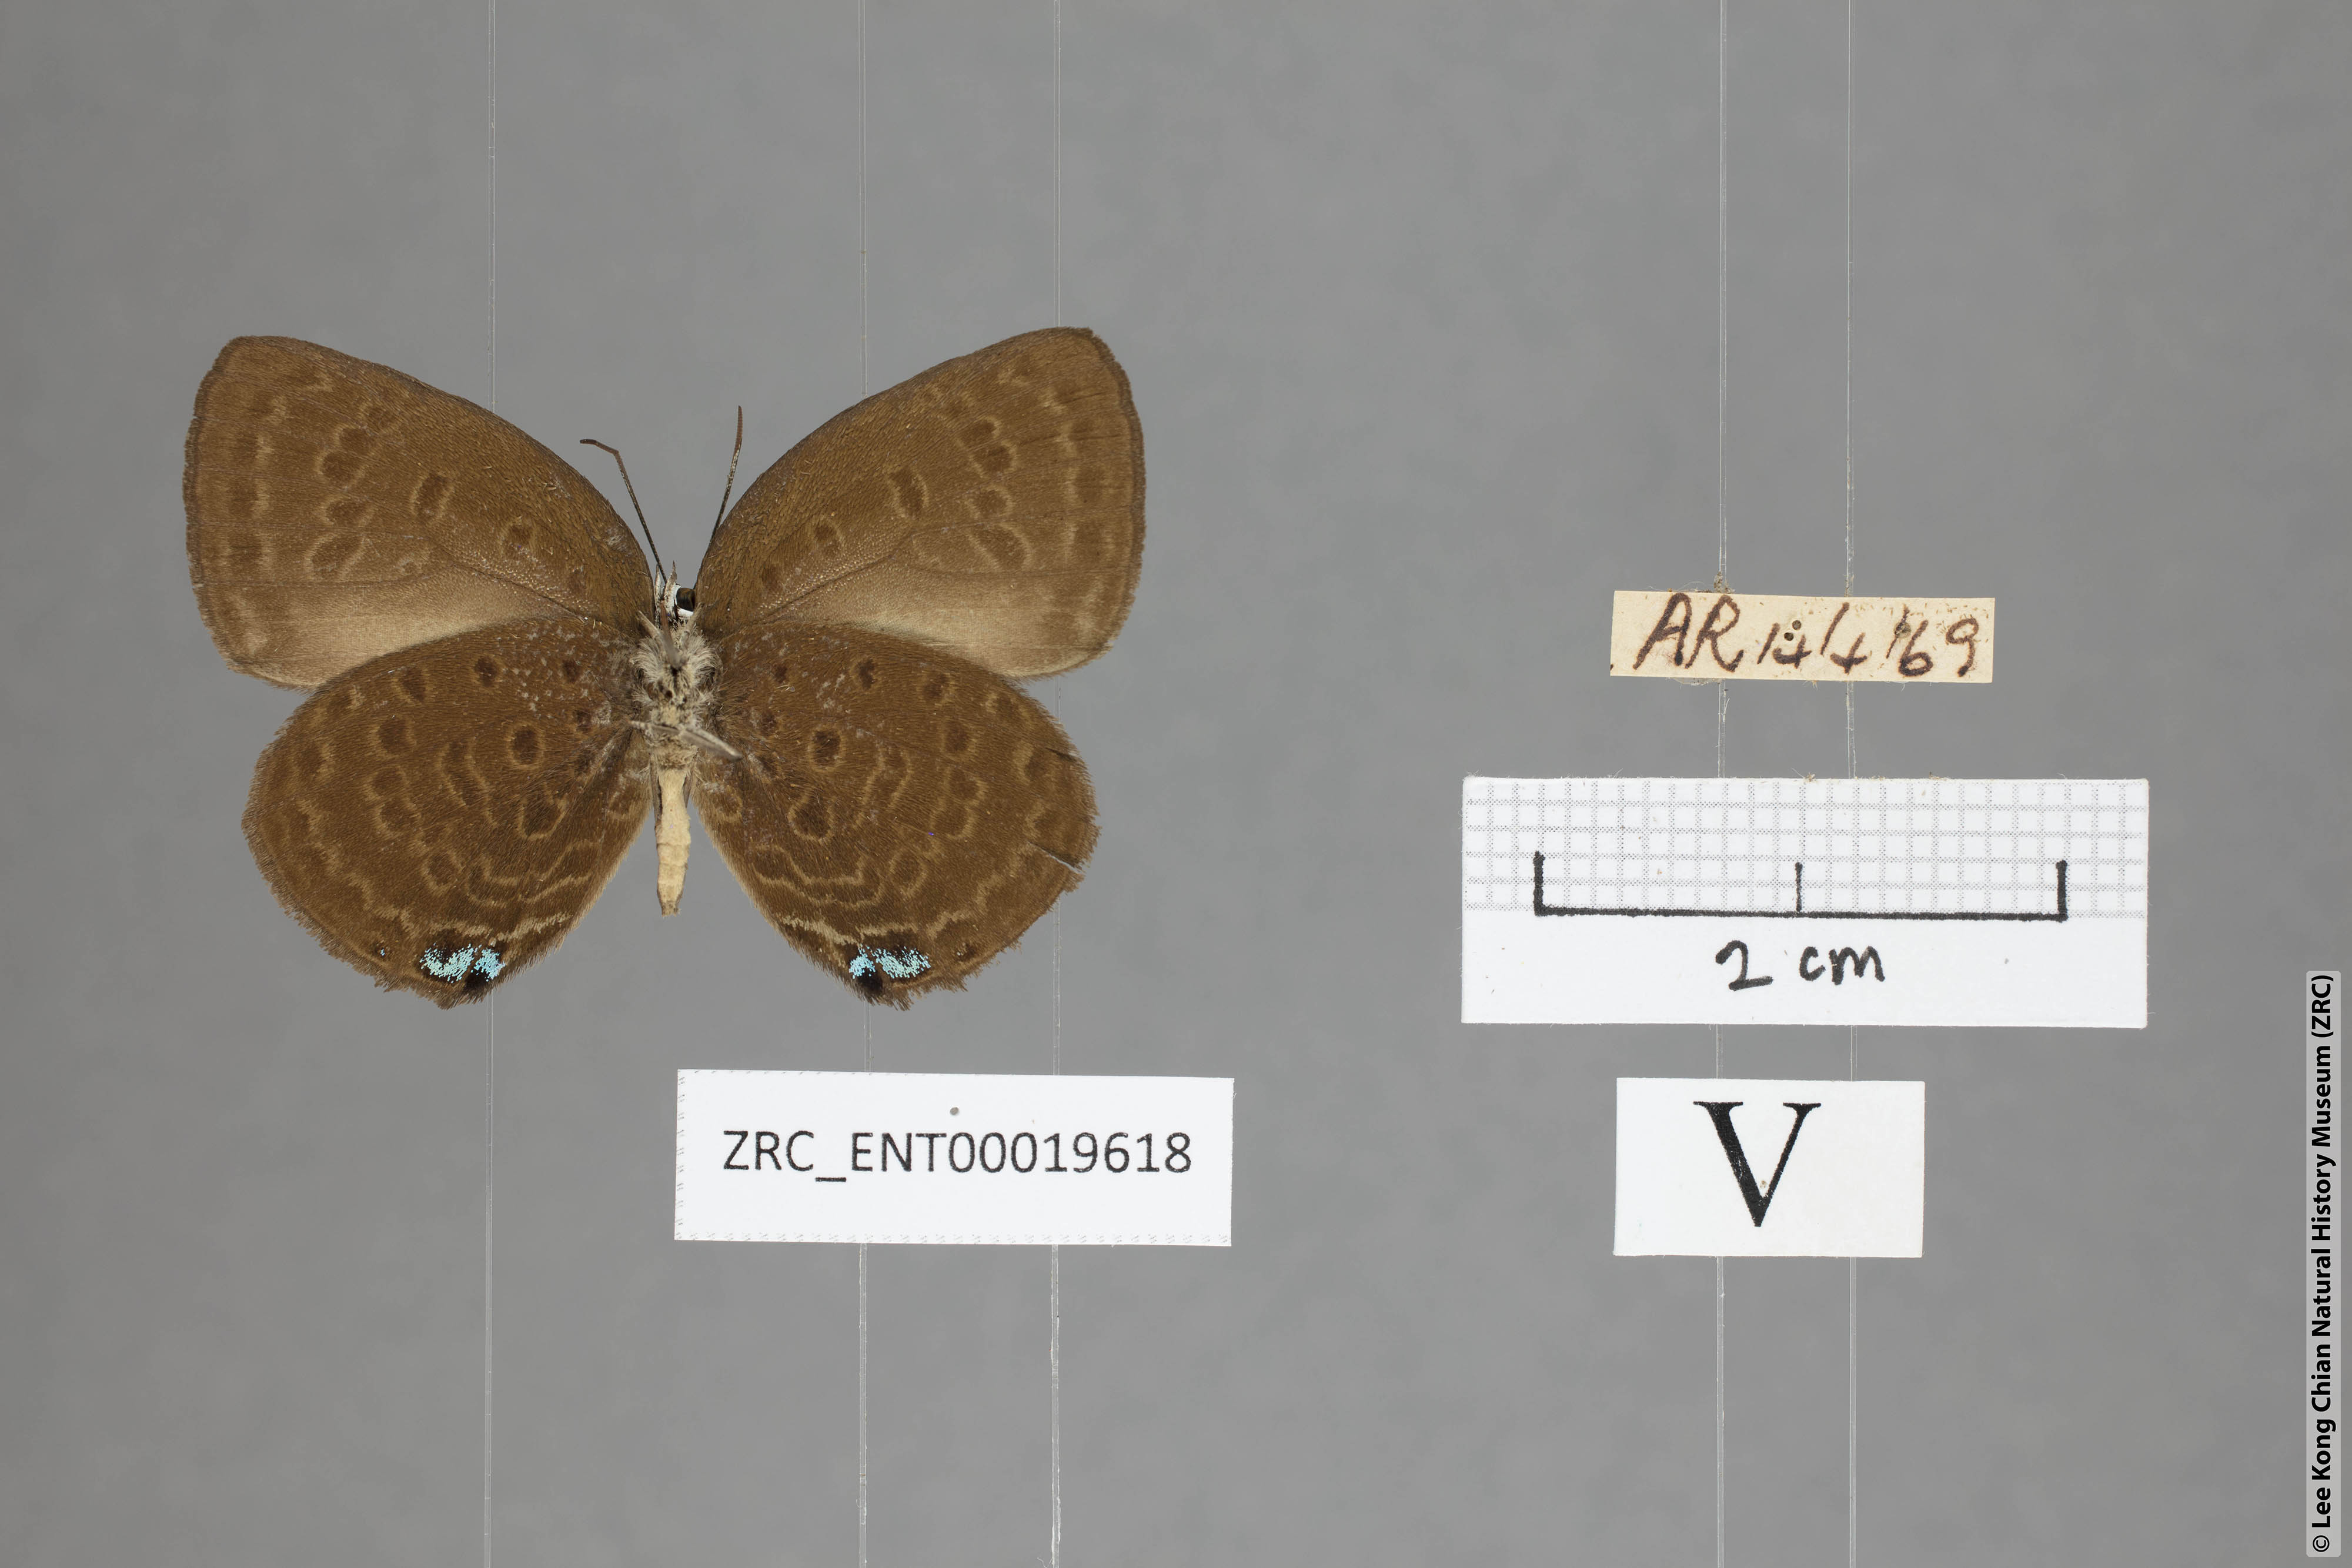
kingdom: Animalia
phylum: Arthropoda
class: Insecta
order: Lepidoptera
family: Lycaenidae
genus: Arhopala
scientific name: Arhopala major
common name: Major yellow oakblue
